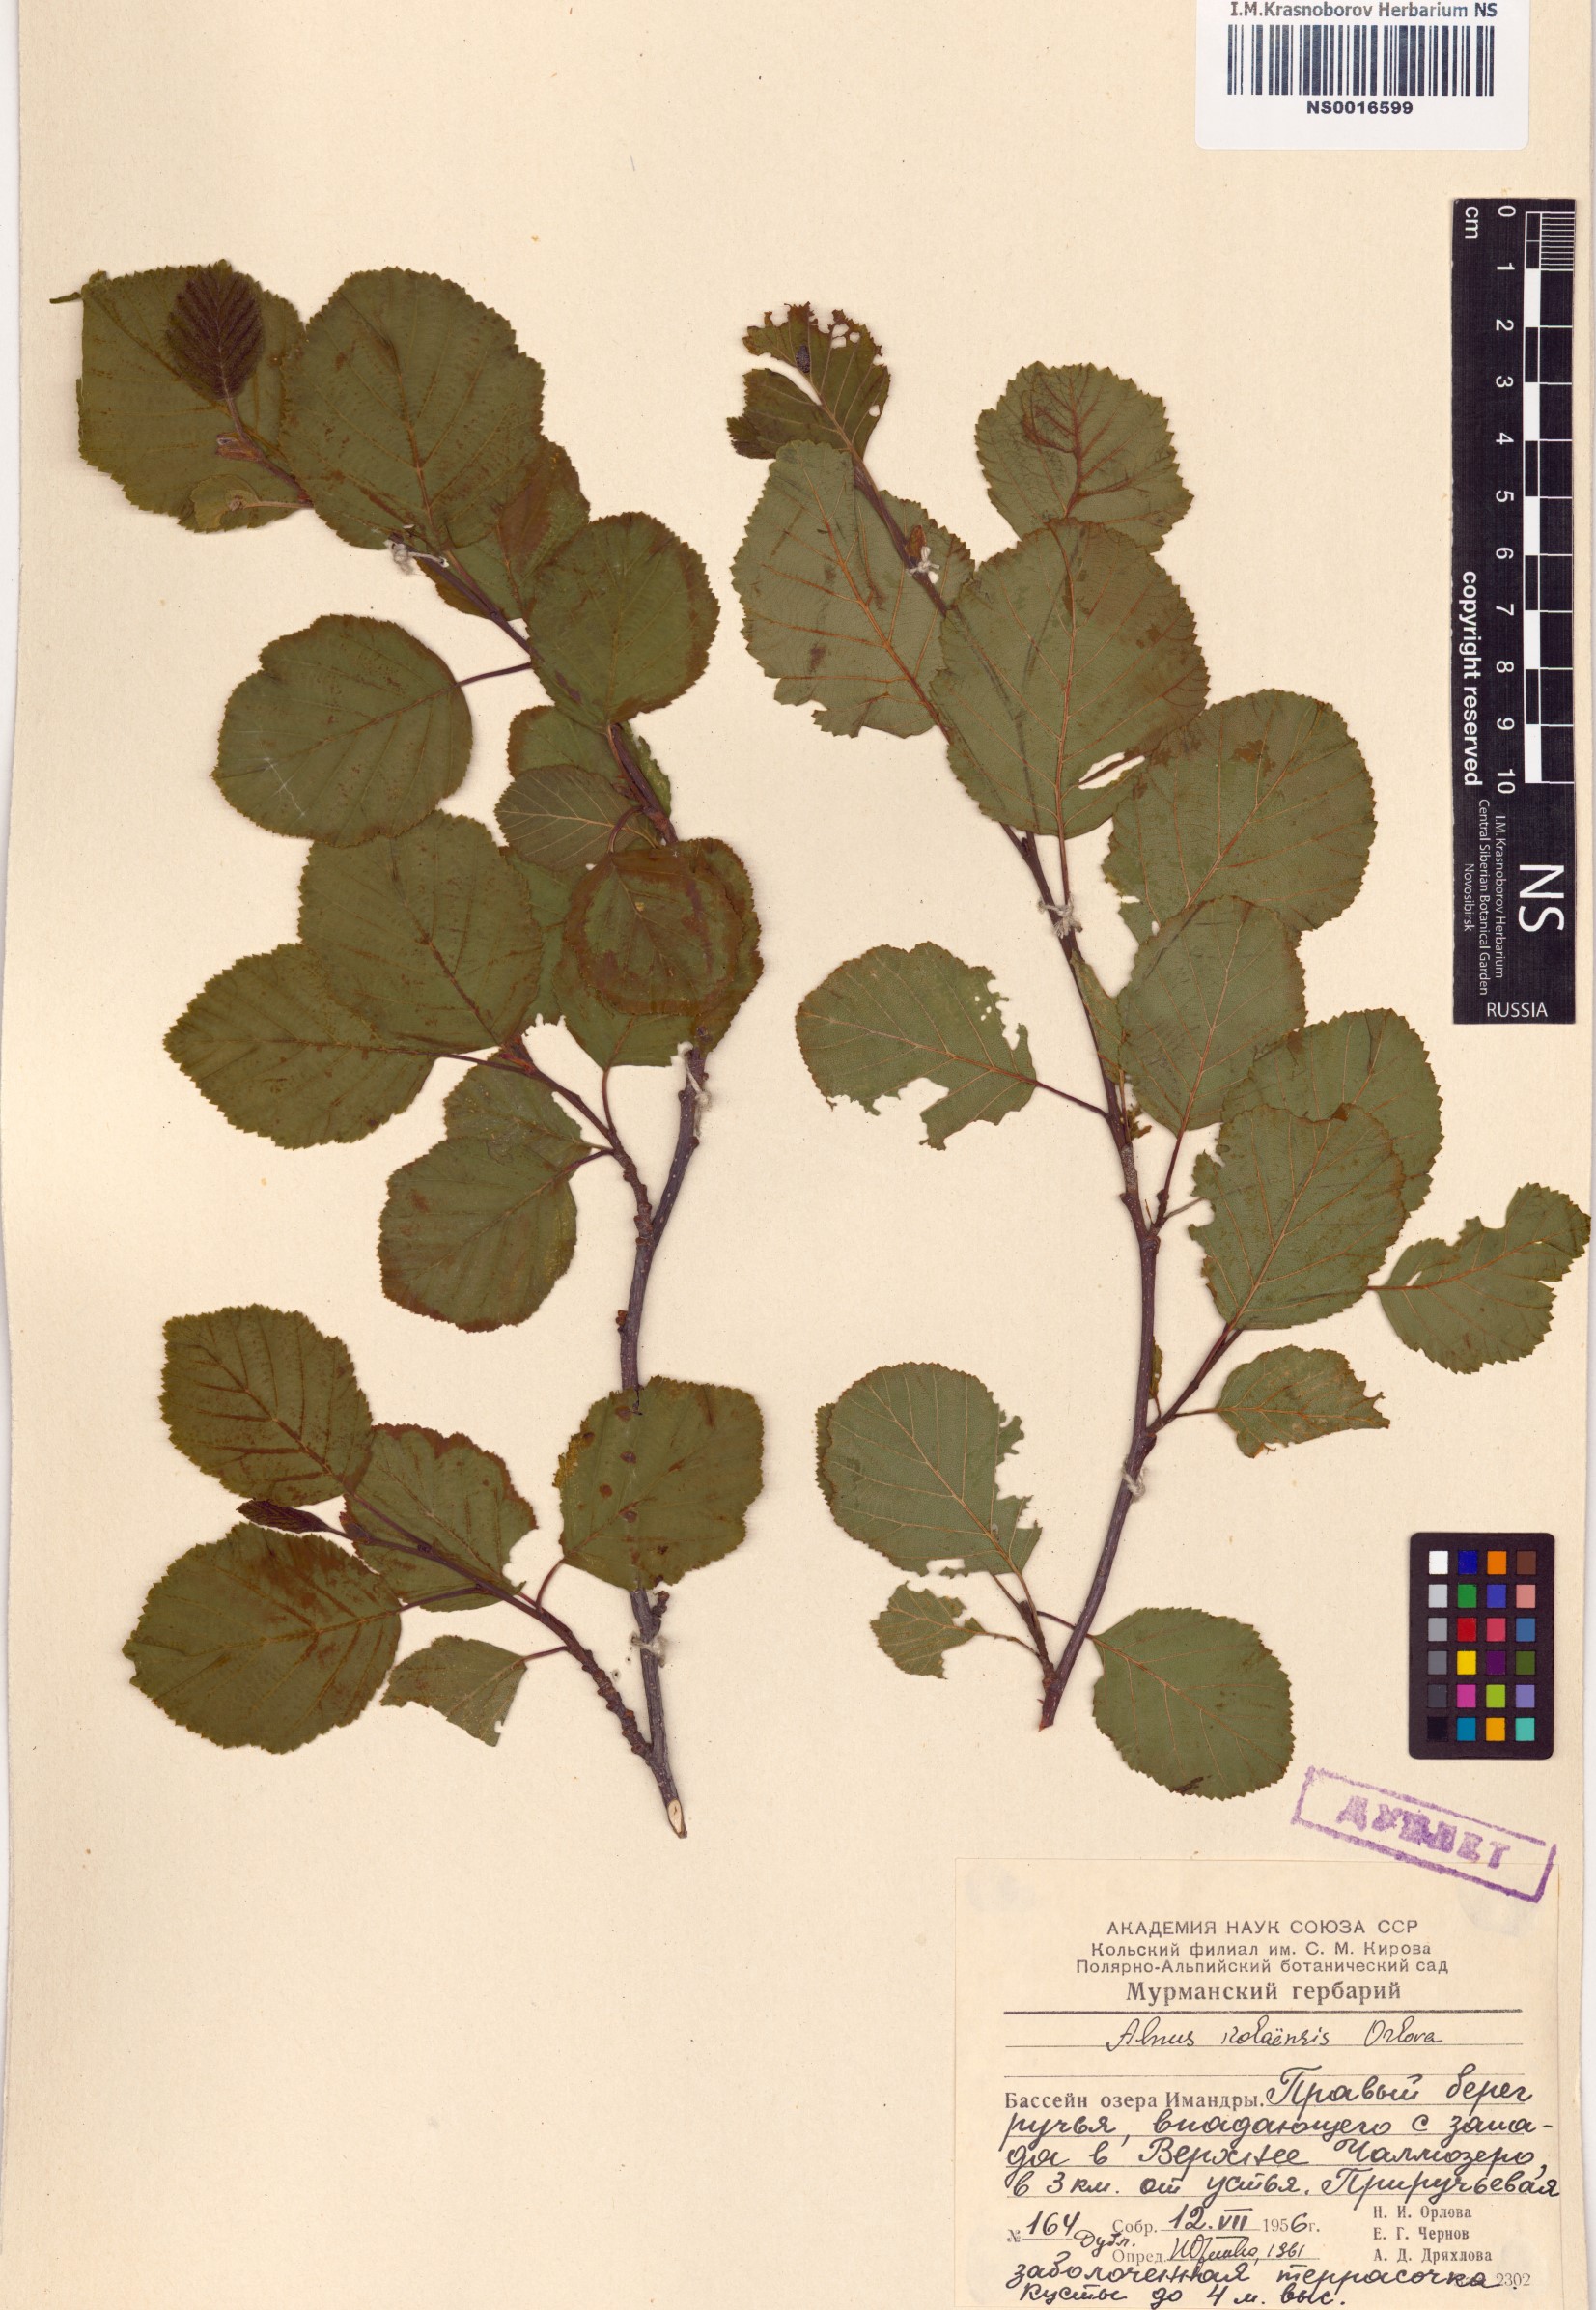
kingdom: Plantae
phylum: Tracheophyta
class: Magnoliopsida
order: Fagales
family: Betulaceae
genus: Alnus
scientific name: Alnus incana
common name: Grey alder
